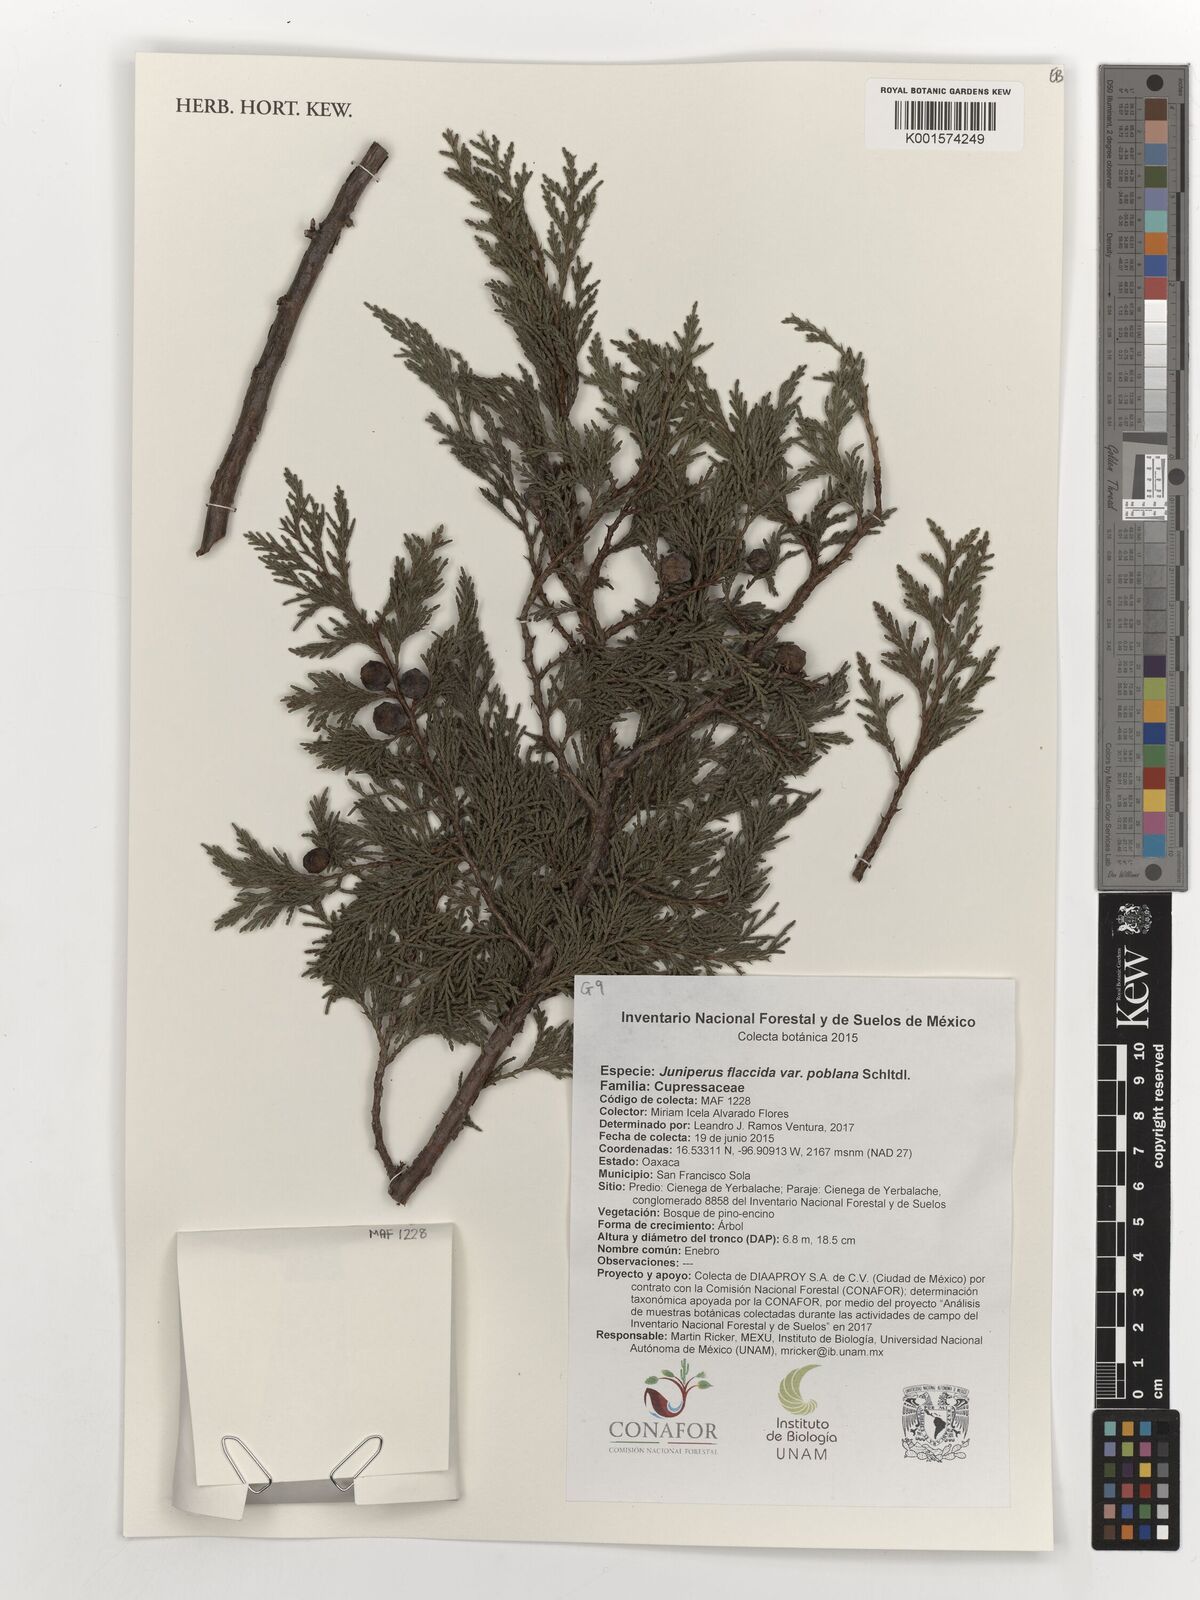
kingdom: Plantae
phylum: Tracheophyta
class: Pinopsida
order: Pinales
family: Cupressaceae
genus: Juniperus
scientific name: Juniperus flaccida
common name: Drooping juniper
